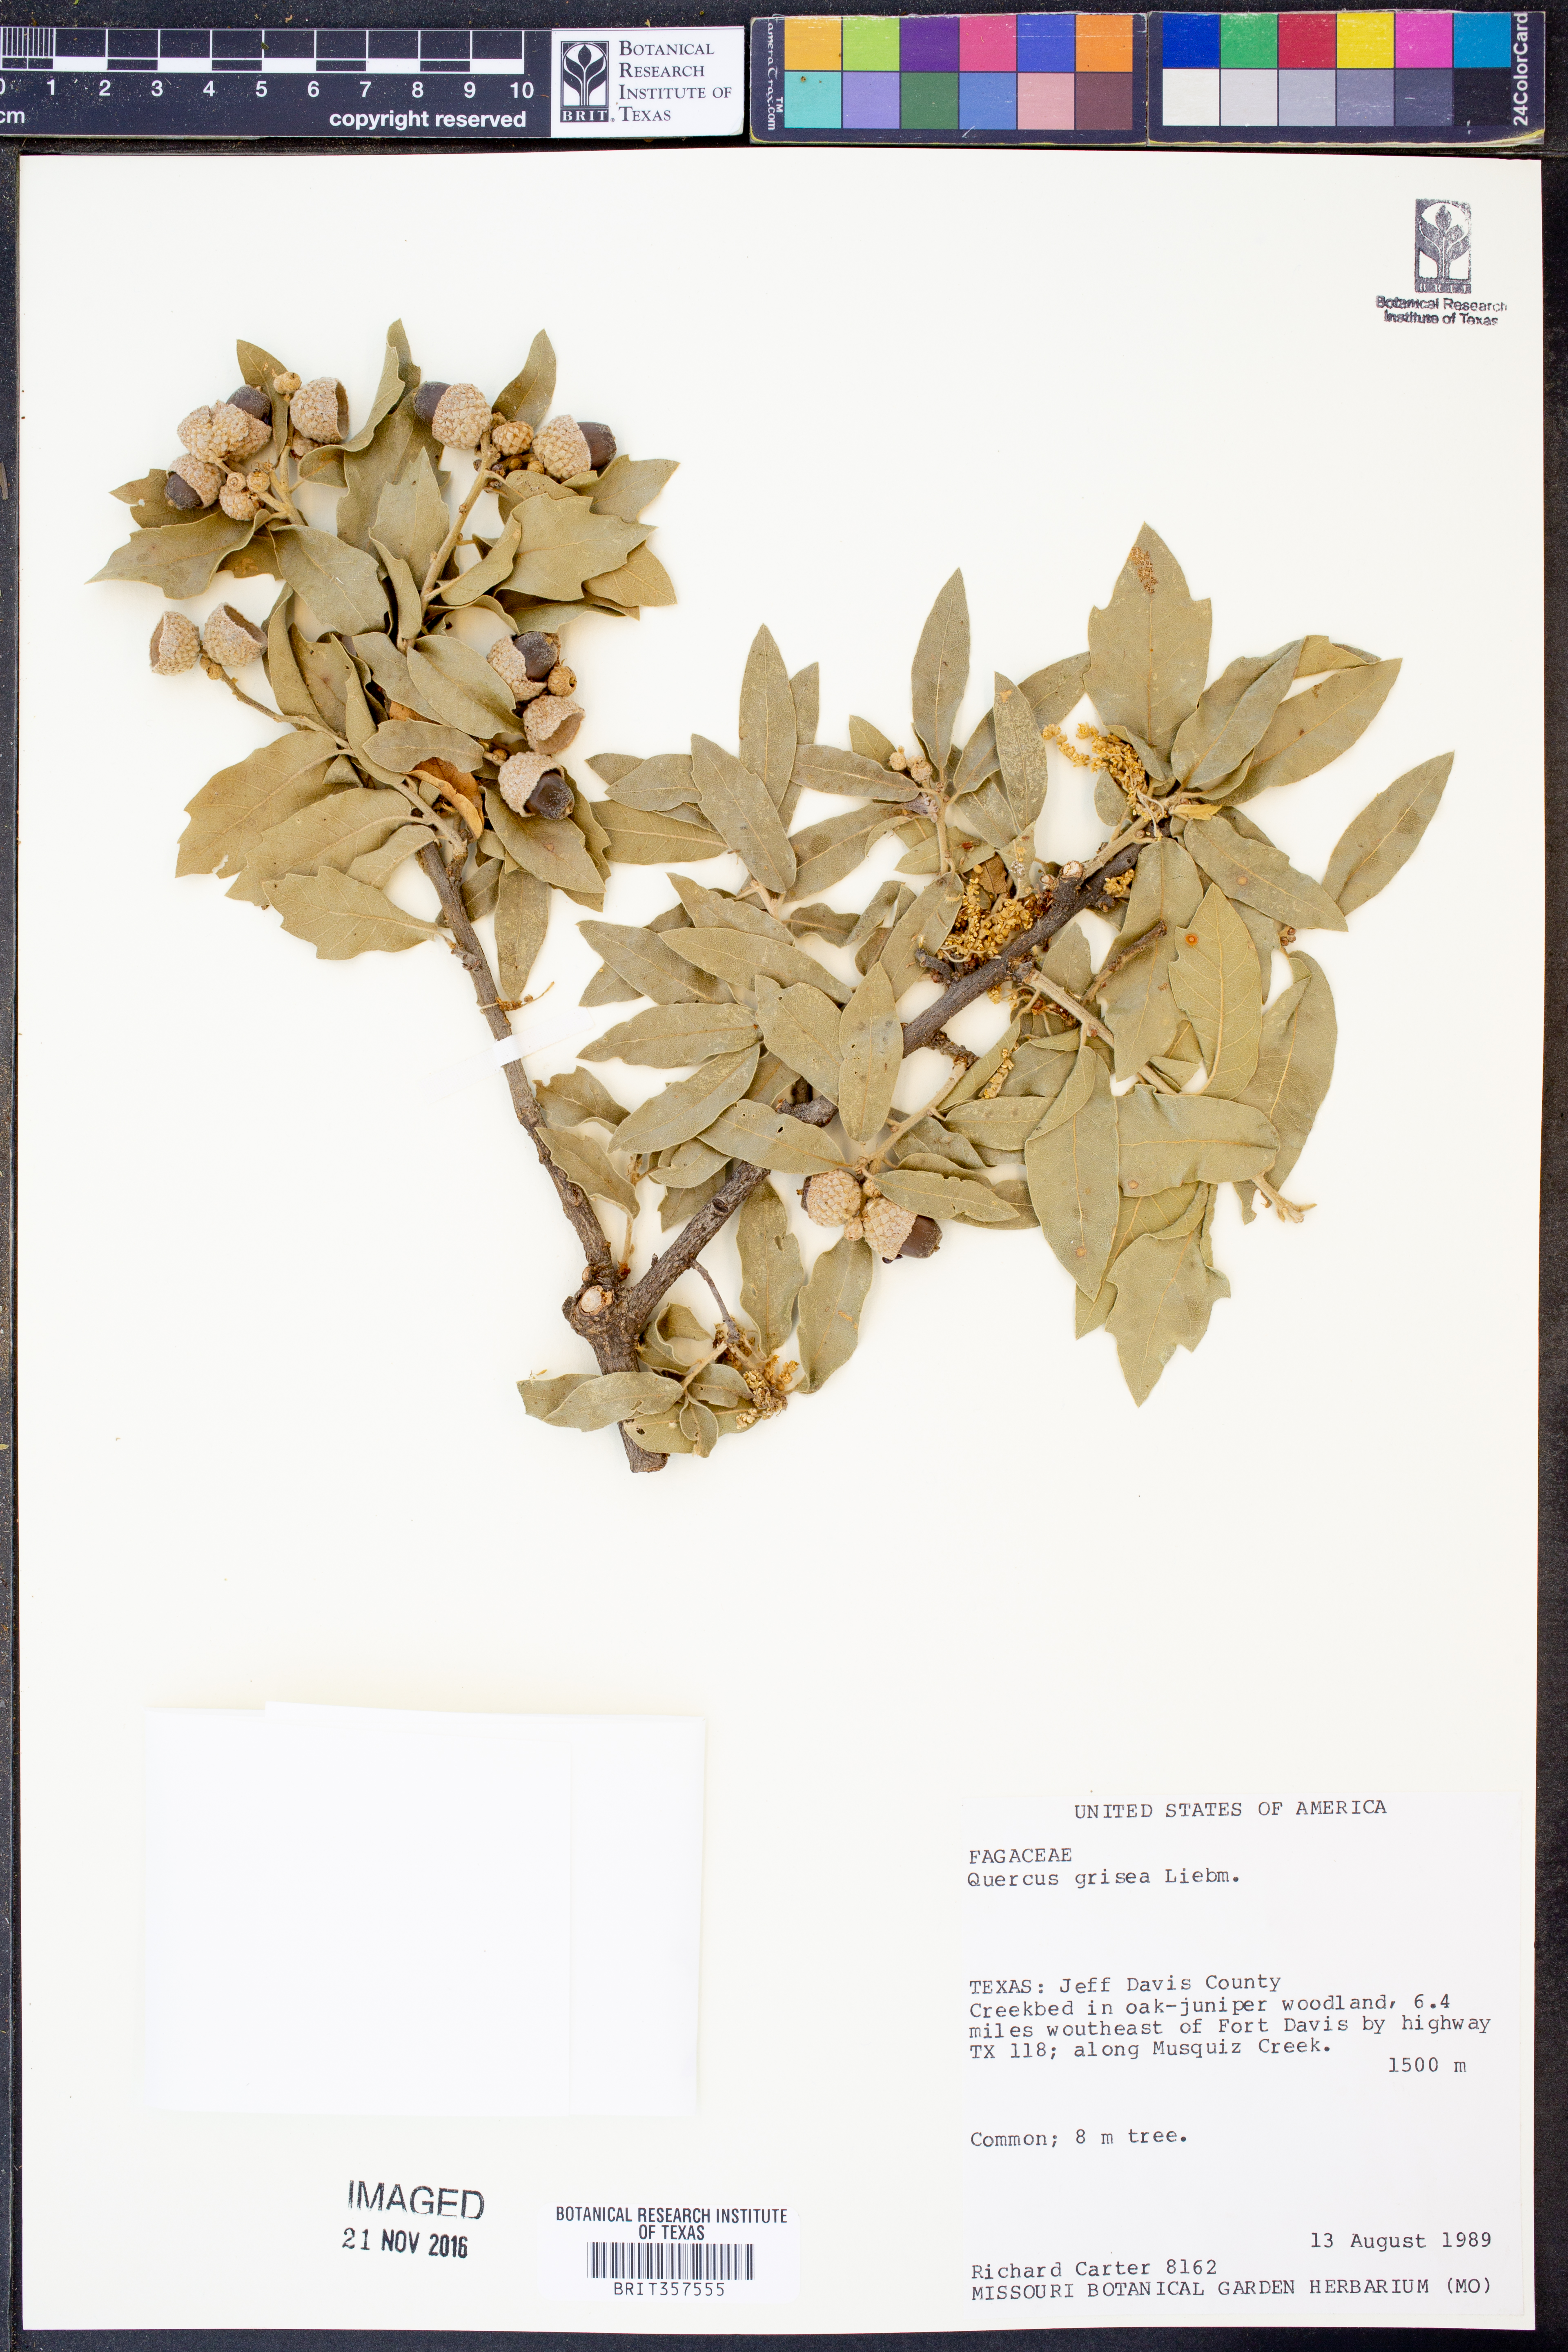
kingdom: Plantae
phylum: Tracheophyta
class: Magnoliopsida
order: Fagales
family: Fagaceae
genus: Quercus
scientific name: Quercus grisea
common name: Gray oak
